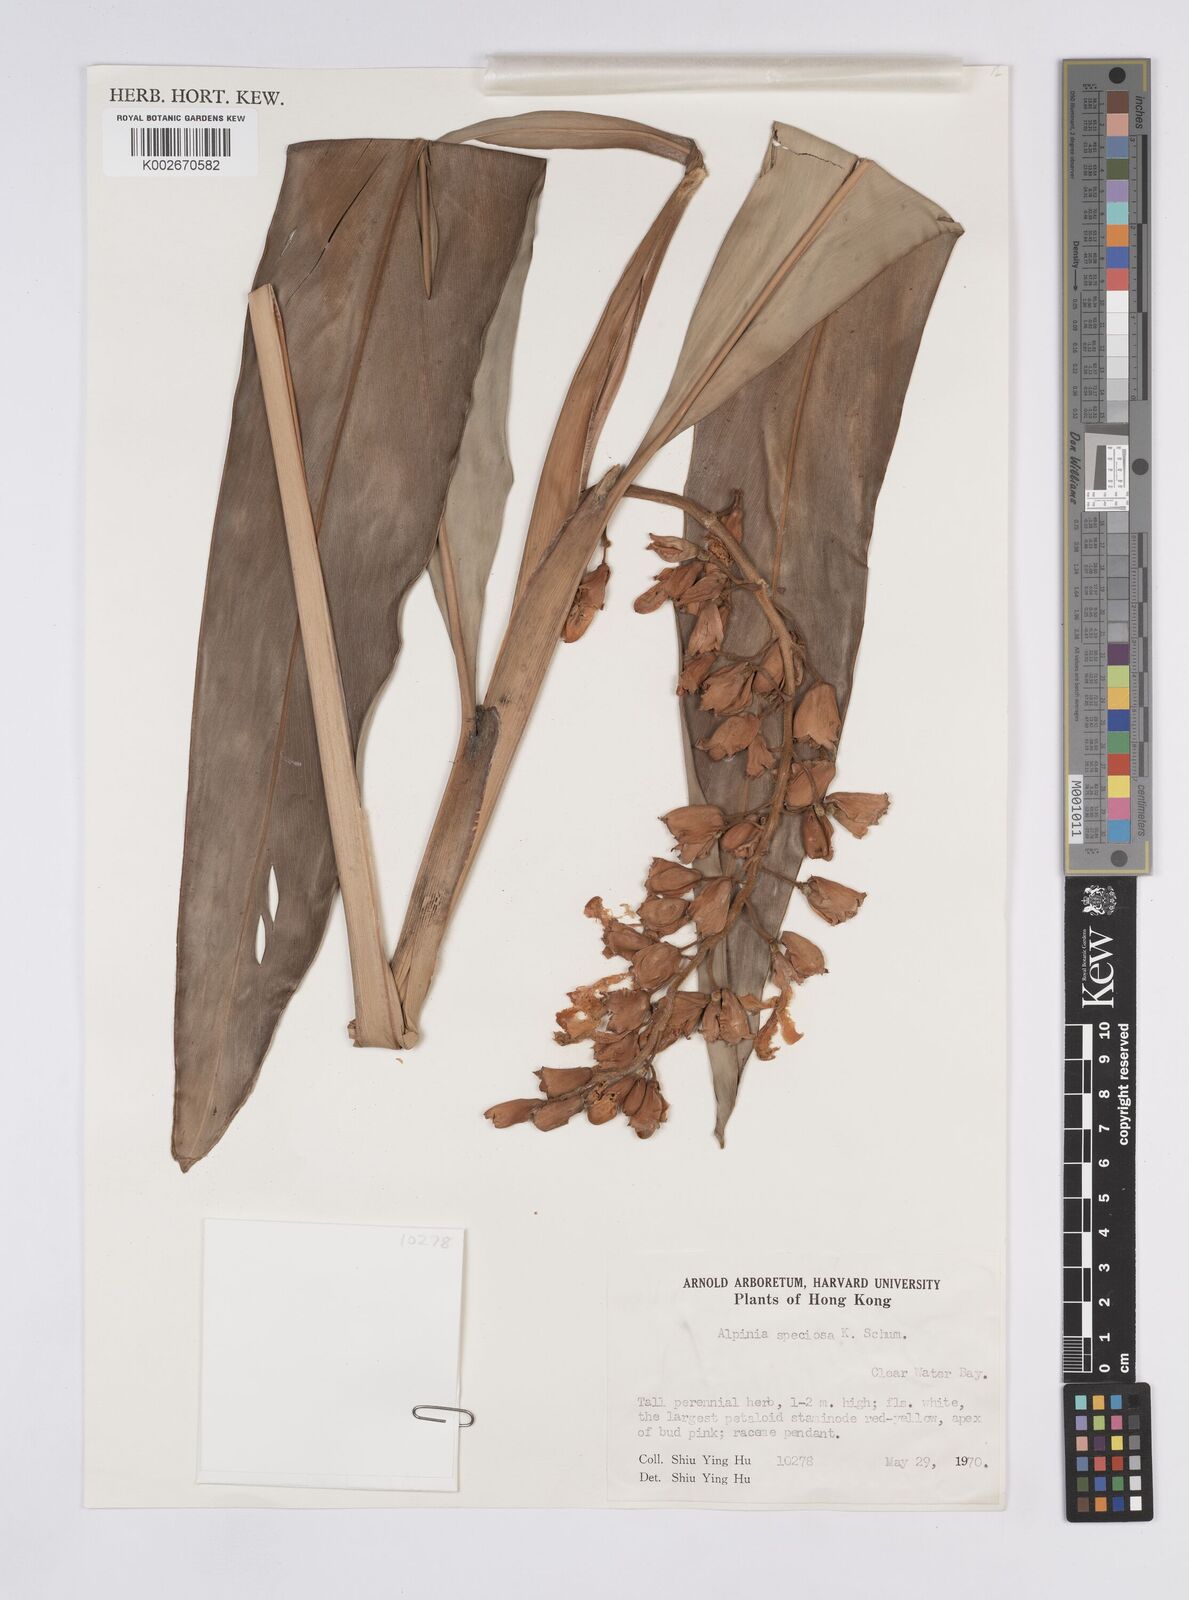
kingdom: Plantae
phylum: Tracheophyta
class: Liliopsida
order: Zingiberales
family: Zingiberaceae
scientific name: Zingiberaceae
